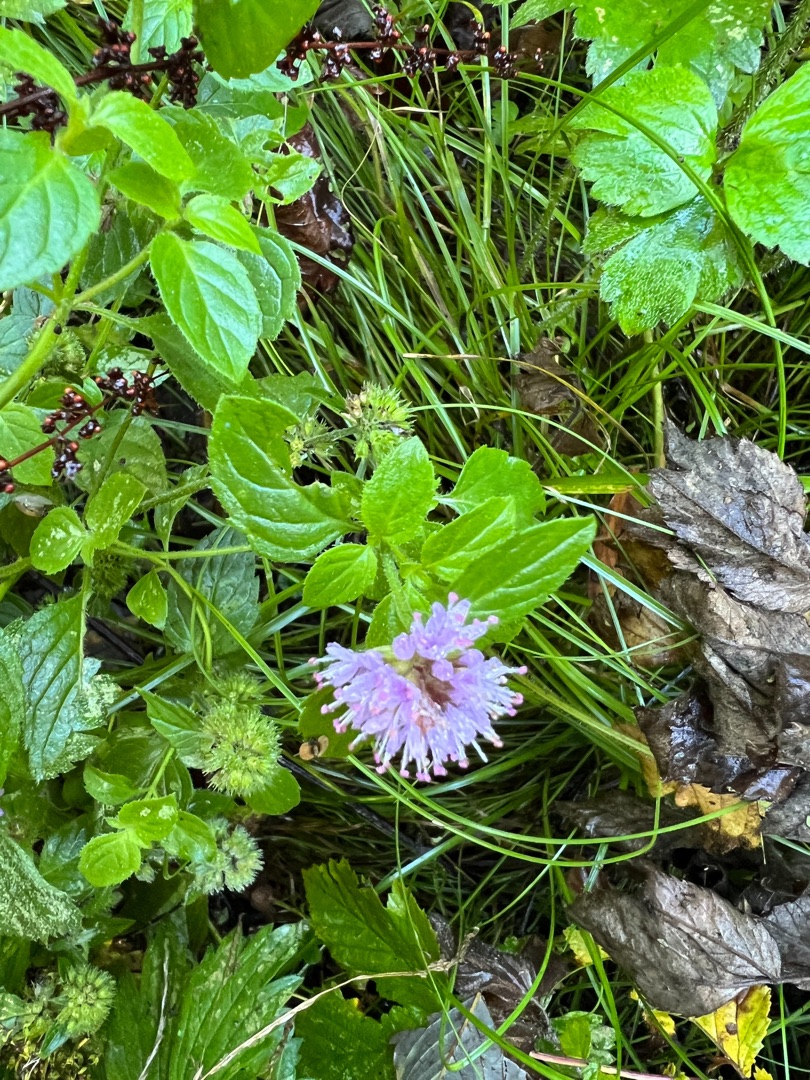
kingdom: Plantae
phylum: Tracheophyta
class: Magnoliopsida
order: Lamiales
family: Lamiaceae
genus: Mentha
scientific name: Mentha aquatica
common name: Vand-mynte
